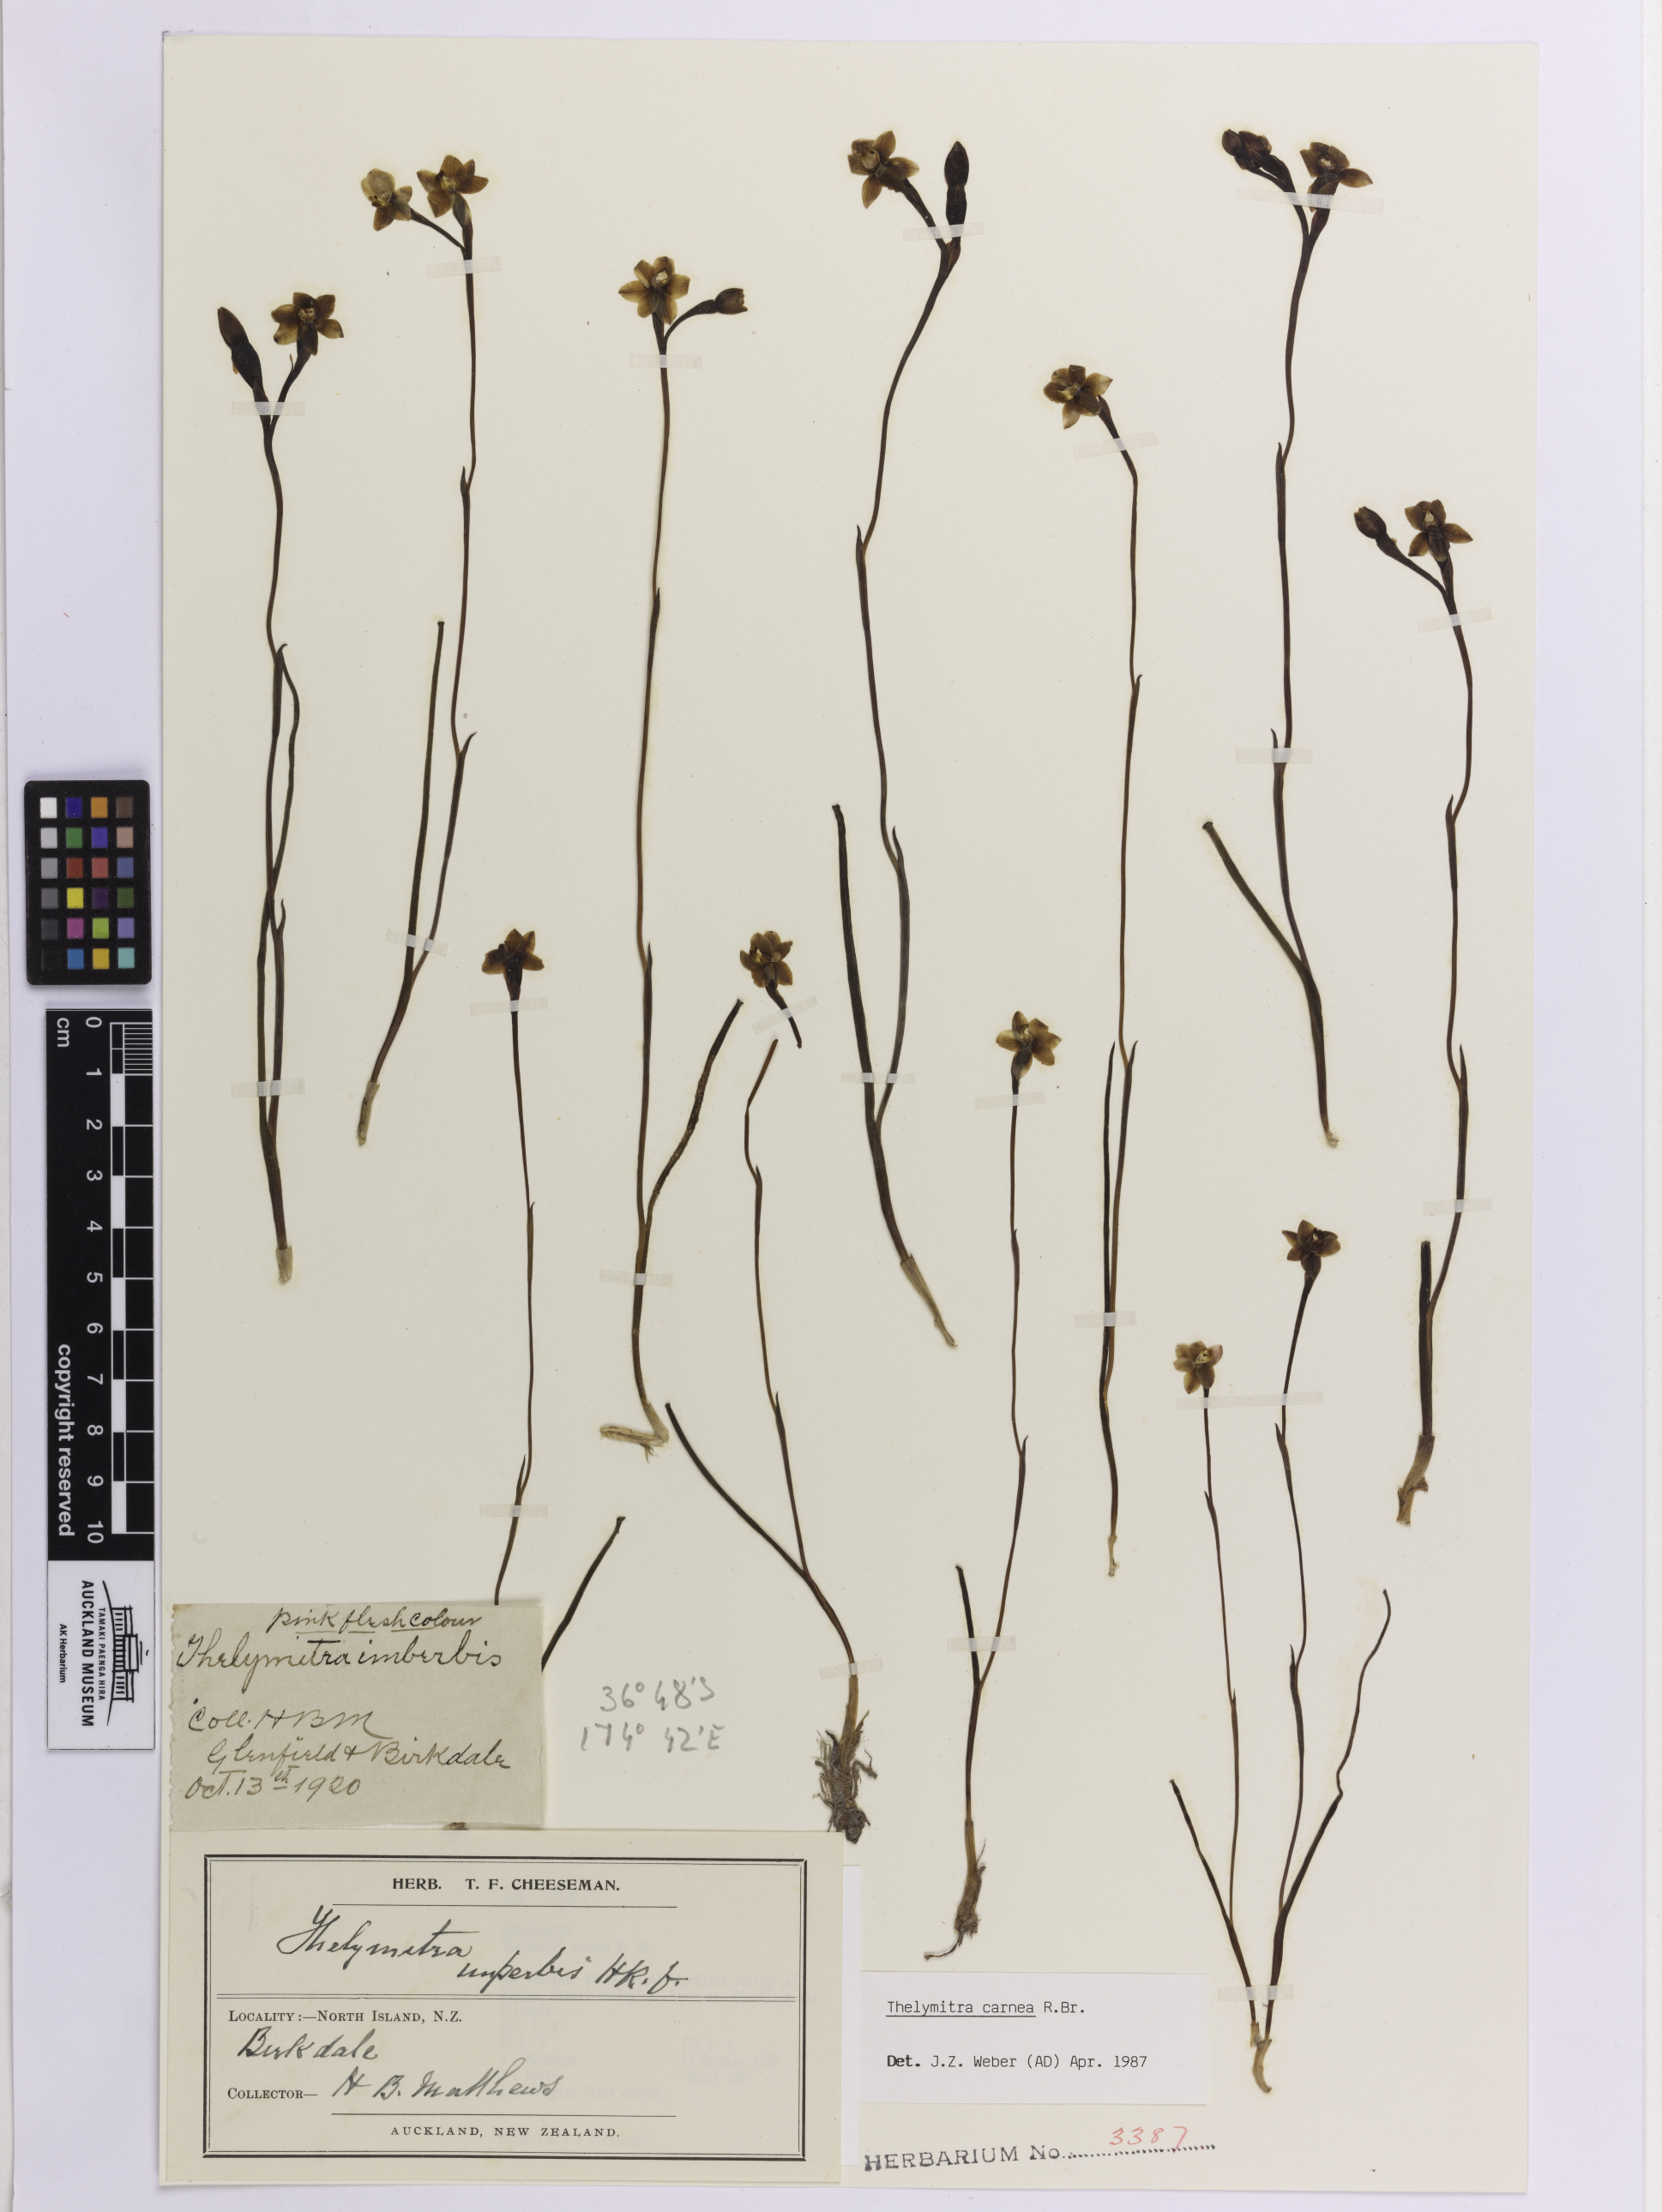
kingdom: Plantae
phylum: Tracheophyta
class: Liliopsida
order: Asparagales
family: Orchidaceae
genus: Thelymitra
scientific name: Thelymitra carnea
